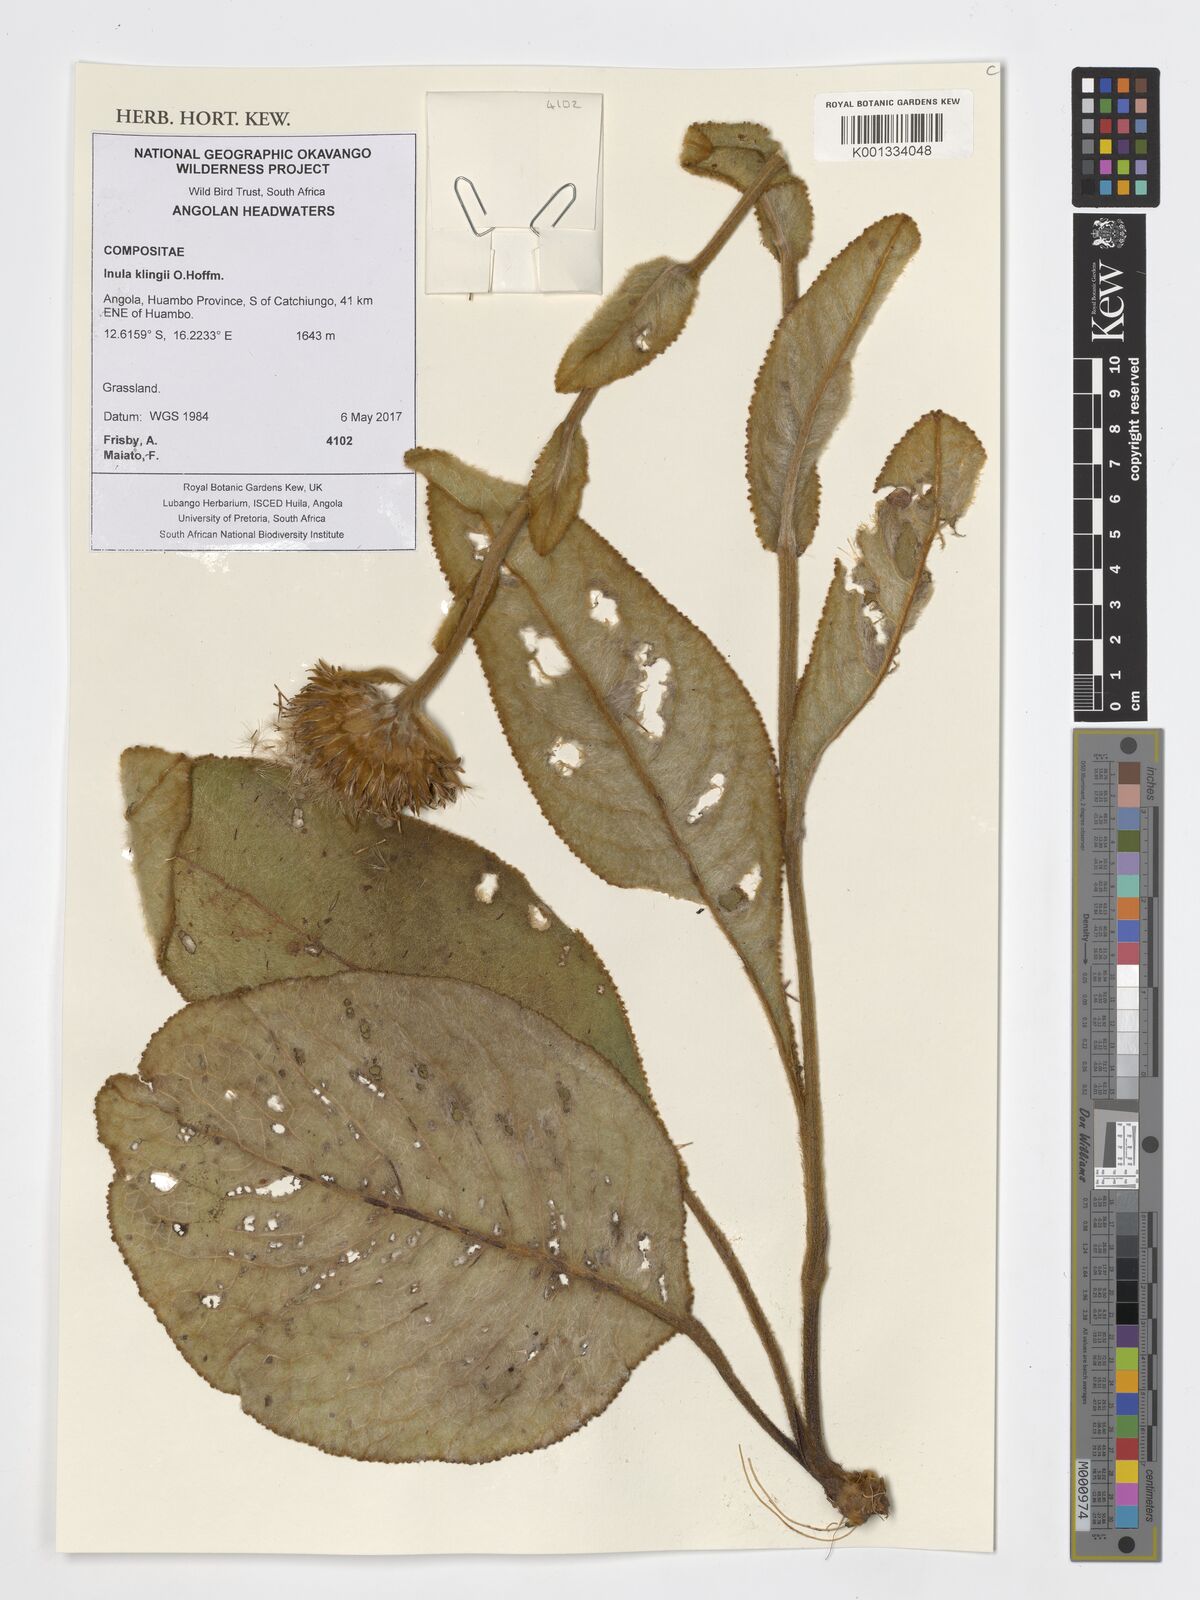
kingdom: Plantae
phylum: Tracheophyta
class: Magnoliopsida
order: Asterales
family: Asteraceae
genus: Inula
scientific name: Inula klingii
